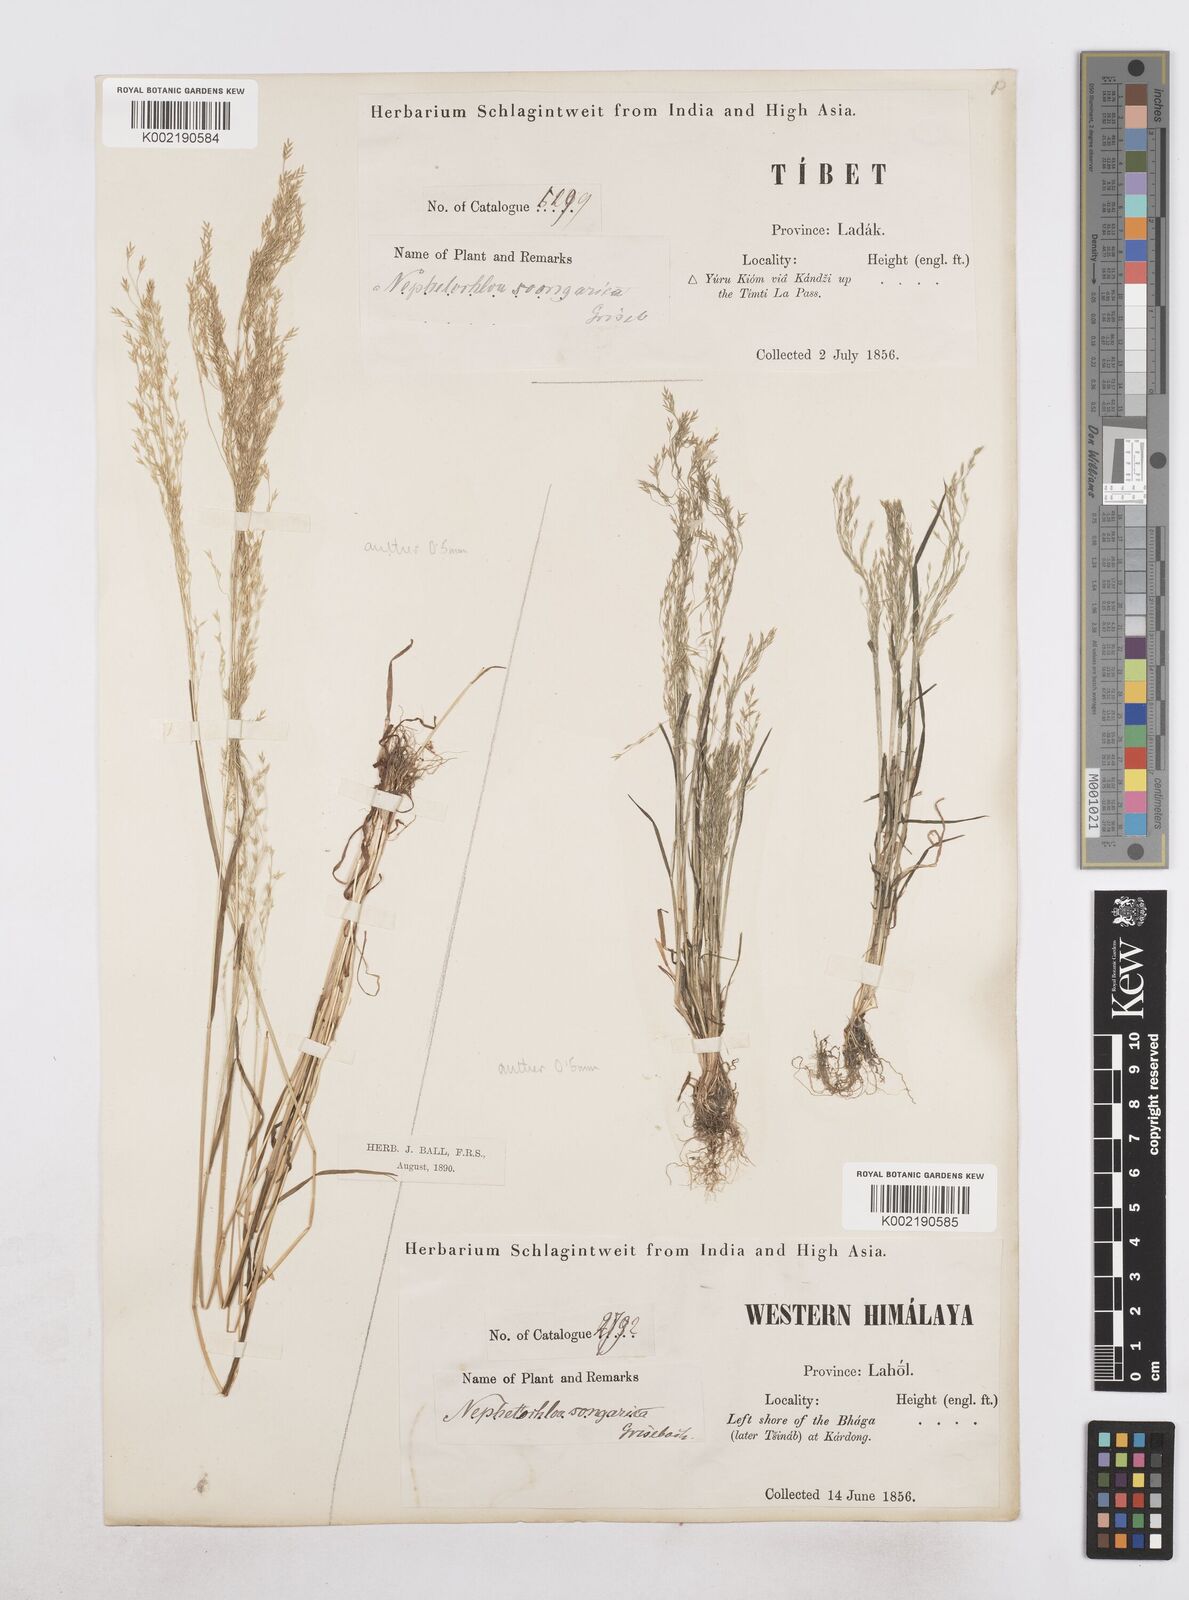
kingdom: Plantae
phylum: Tracheophyta
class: Liliopsida
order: Poales
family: Poaceae
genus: Poa
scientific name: Poa diaphora
